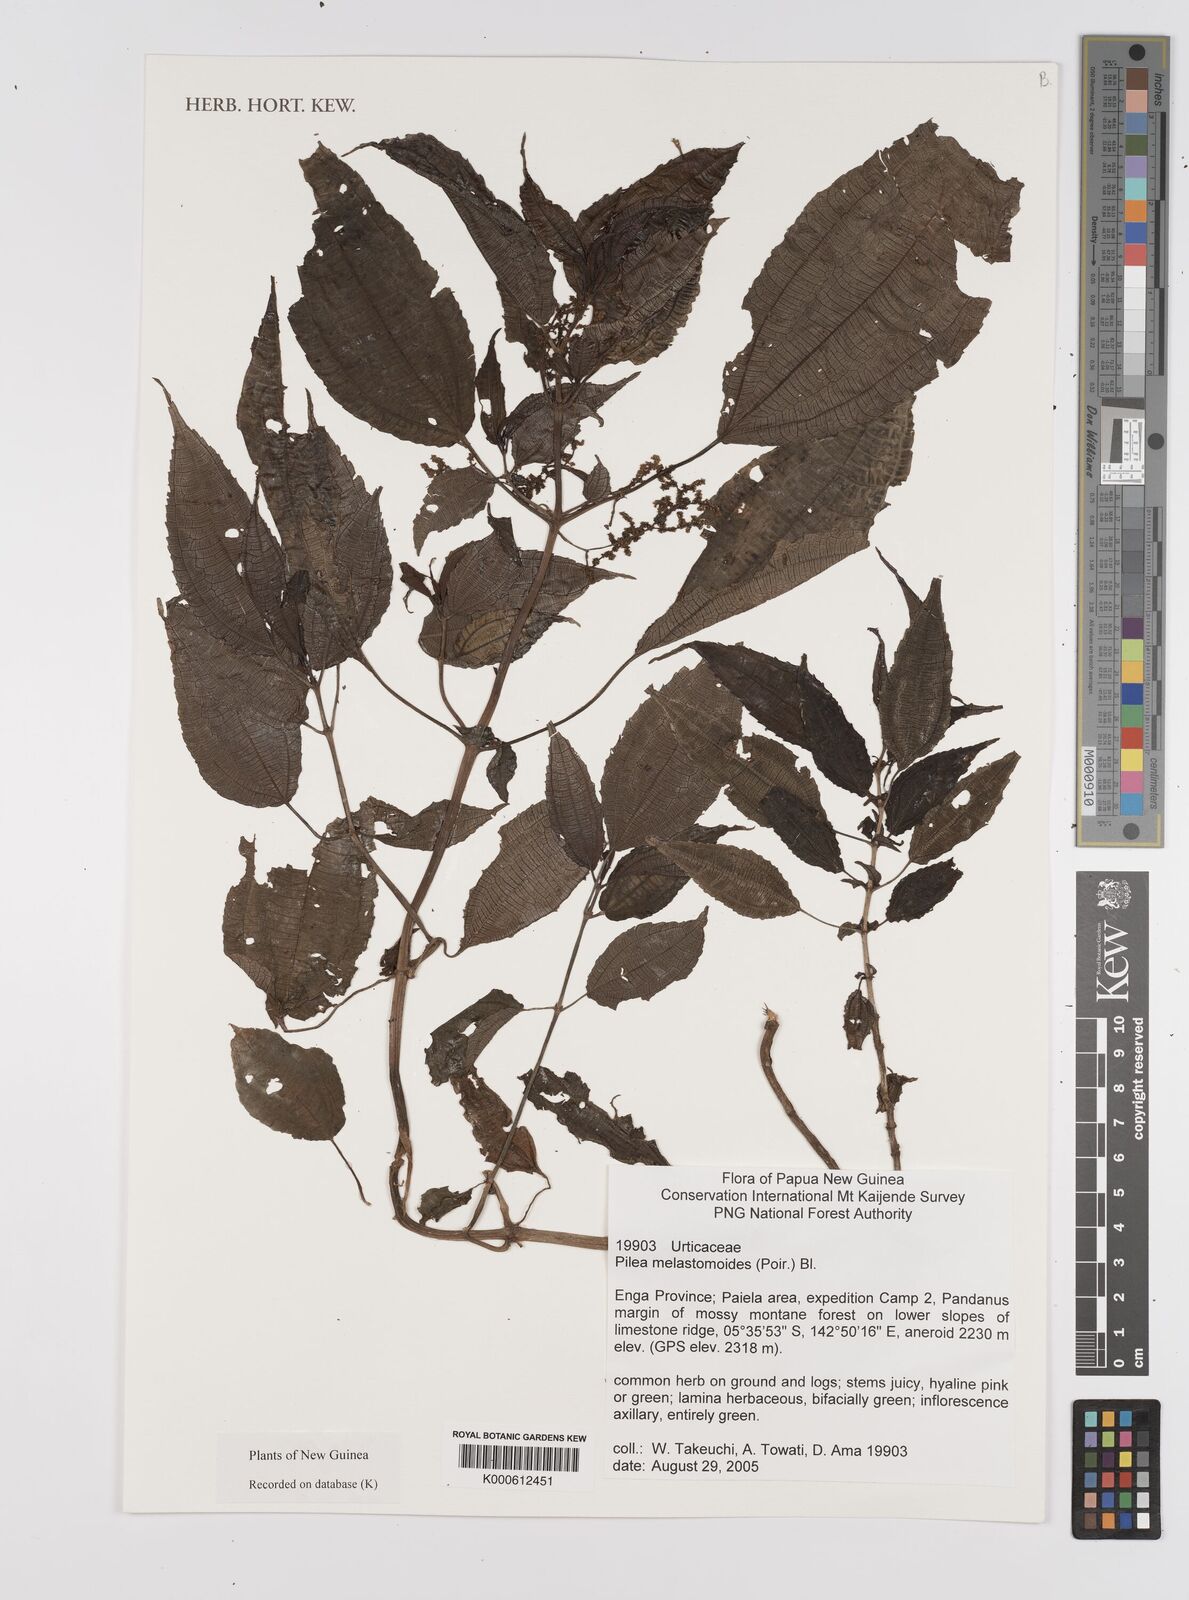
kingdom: Plantae
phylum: Tracheophyta
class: Magnoliopsida
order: Rosales
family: Urticaceae
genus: Pilea
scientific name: Pilea
